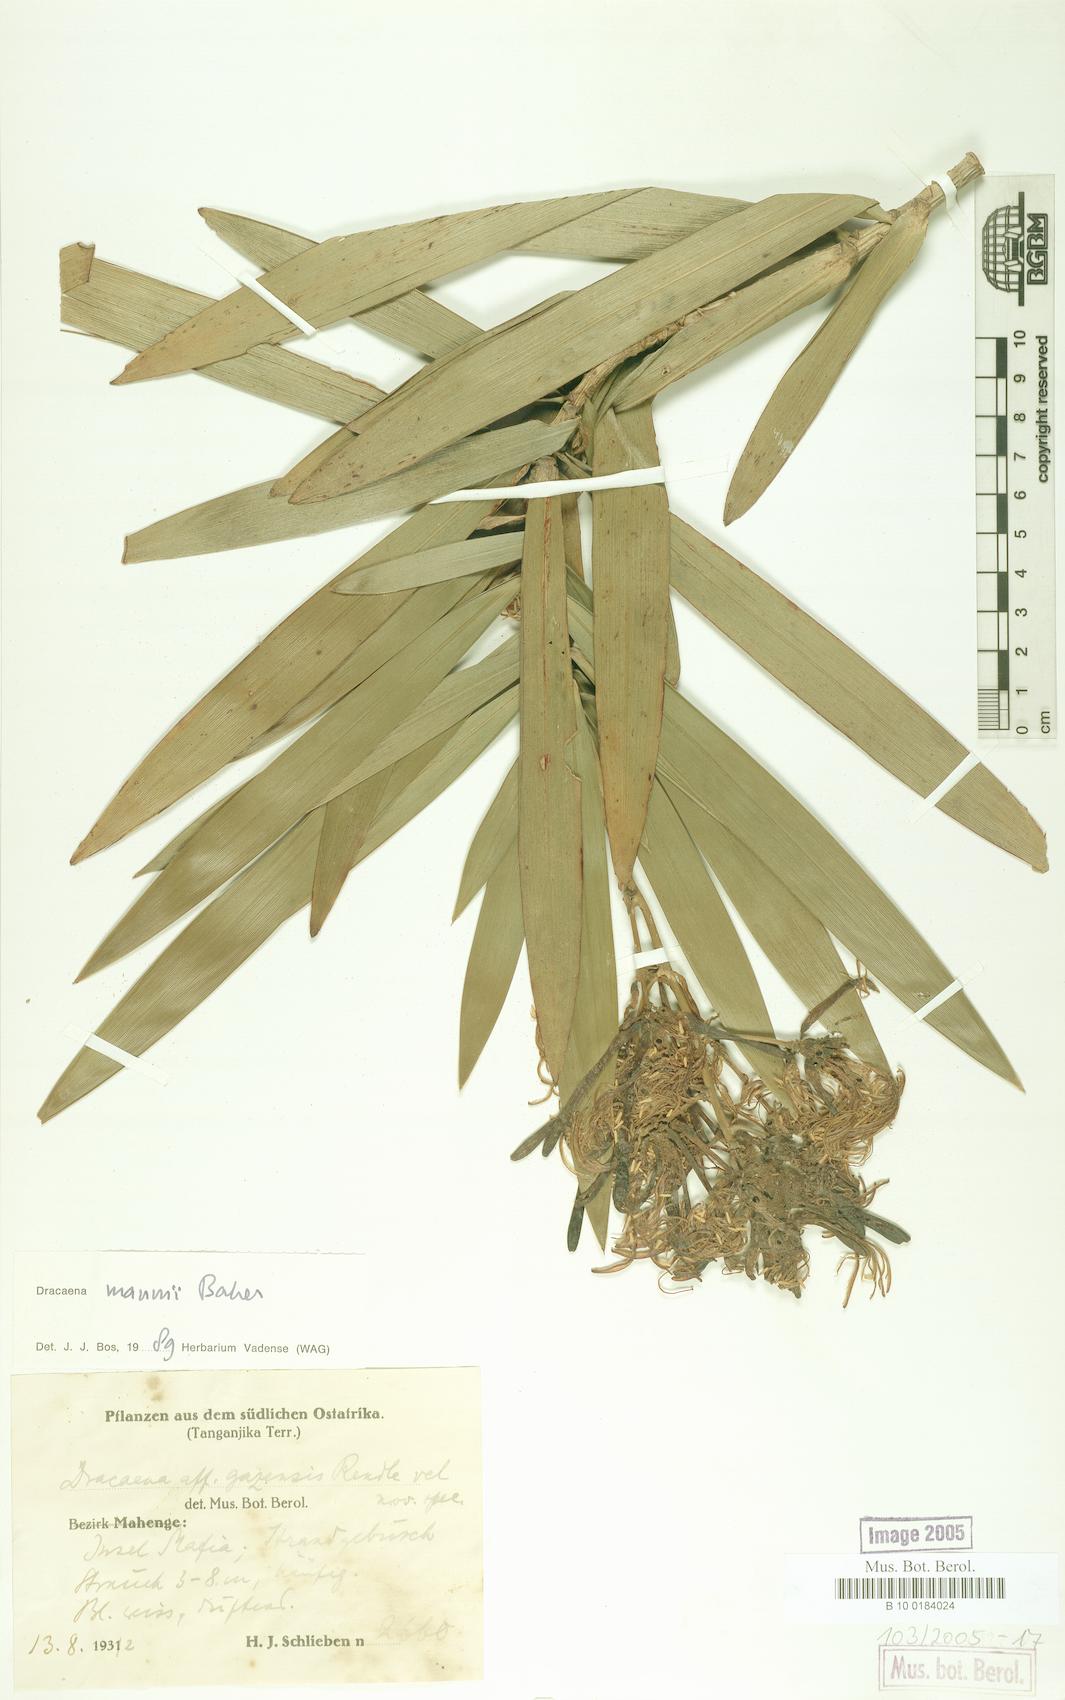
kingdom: Plantae
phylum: Tracheophyta
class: Liliopsida
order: Asparagales
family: Asparagaceae
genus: Dracaena
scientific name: Dracaena mannii
